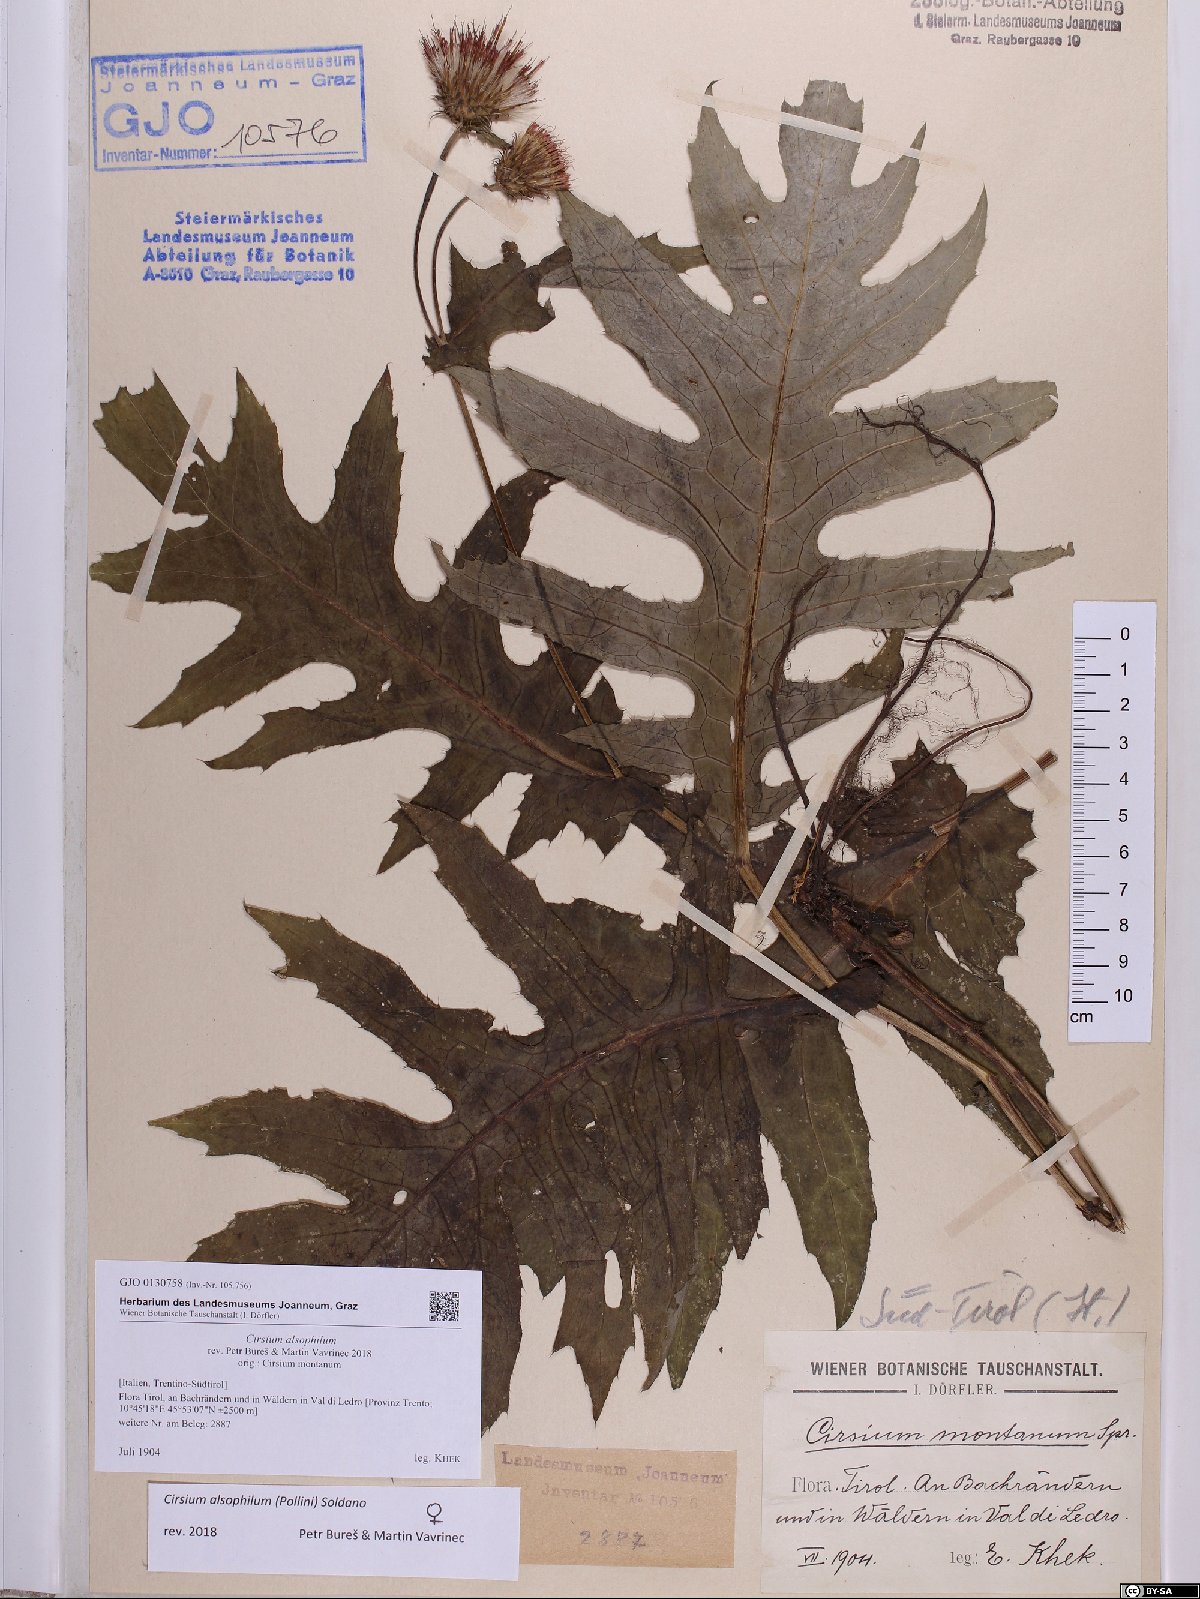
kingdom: Plantae
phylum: Tracheophyta
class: Magnoliopsida
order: Asterales
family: Asteraceae
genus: Cirsium
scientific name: Cirsium alsophilum
